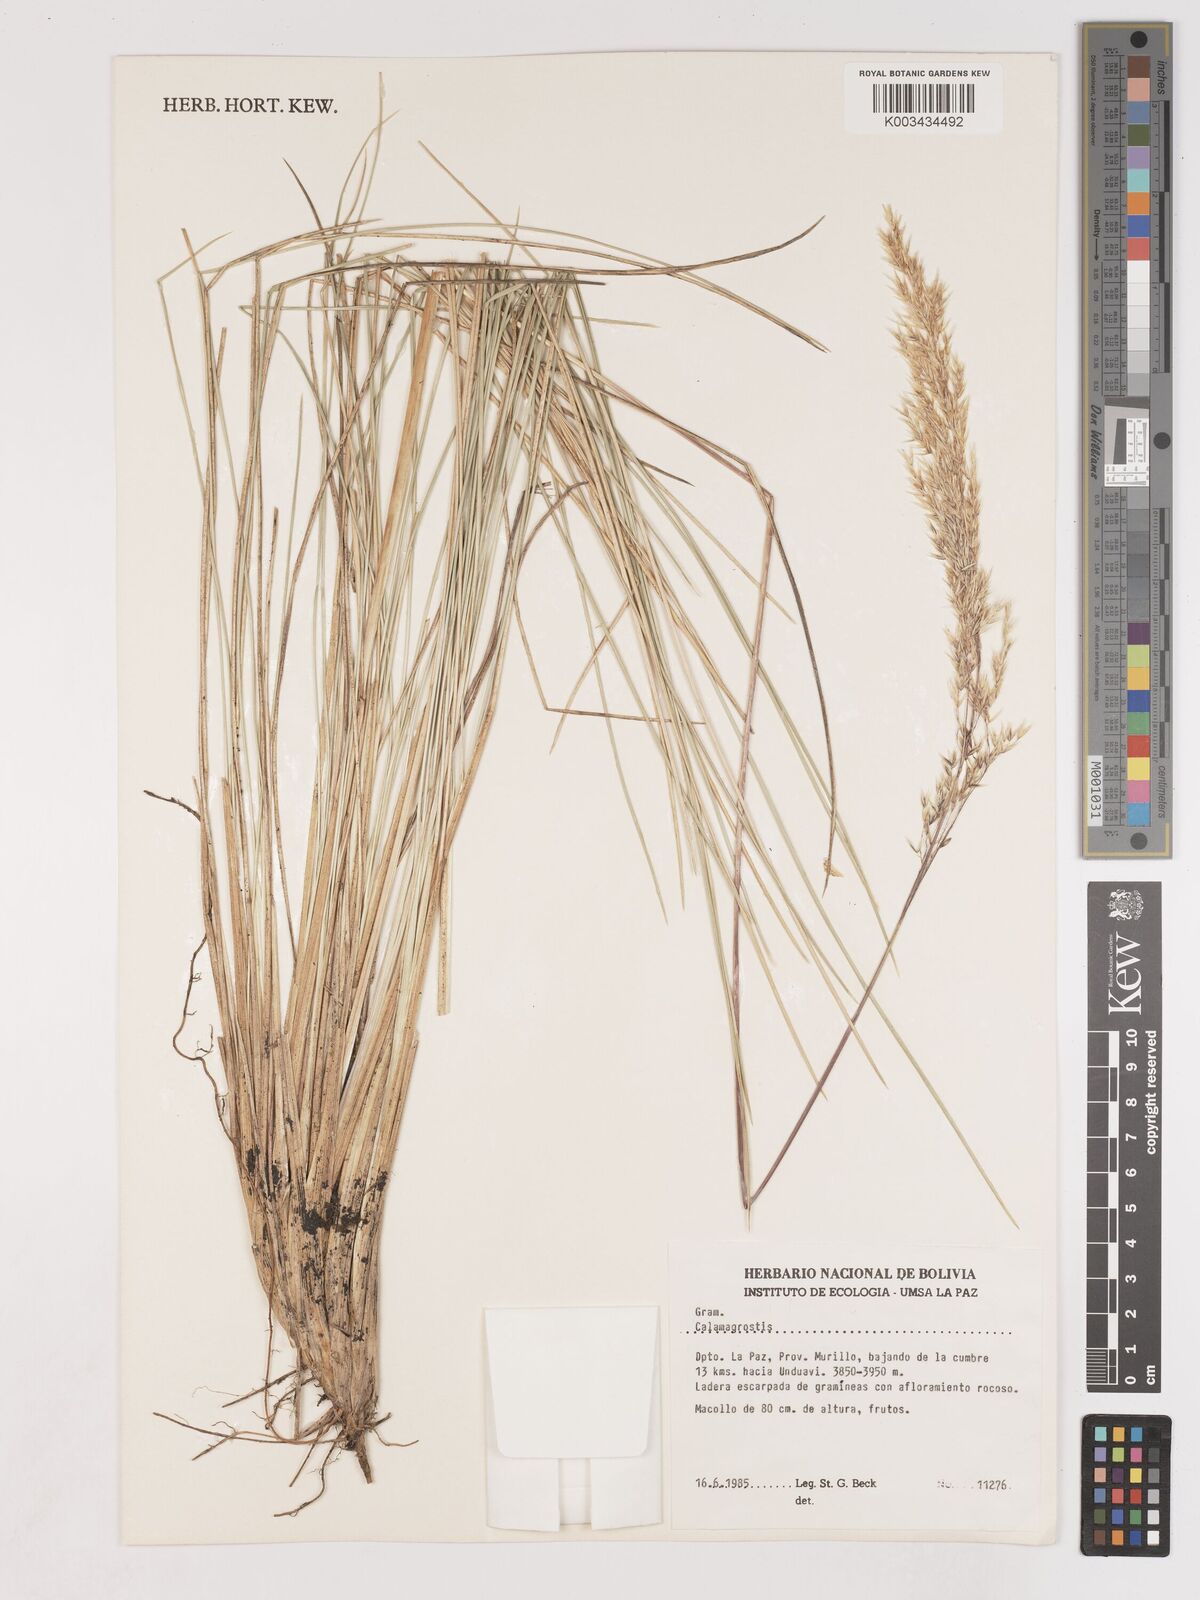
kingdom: Plantae
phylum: Tracheophyta
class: Liliopsida
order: Poales
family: Poaceae
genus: Cinnagrostis
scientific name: Cinnagrostis rigida
